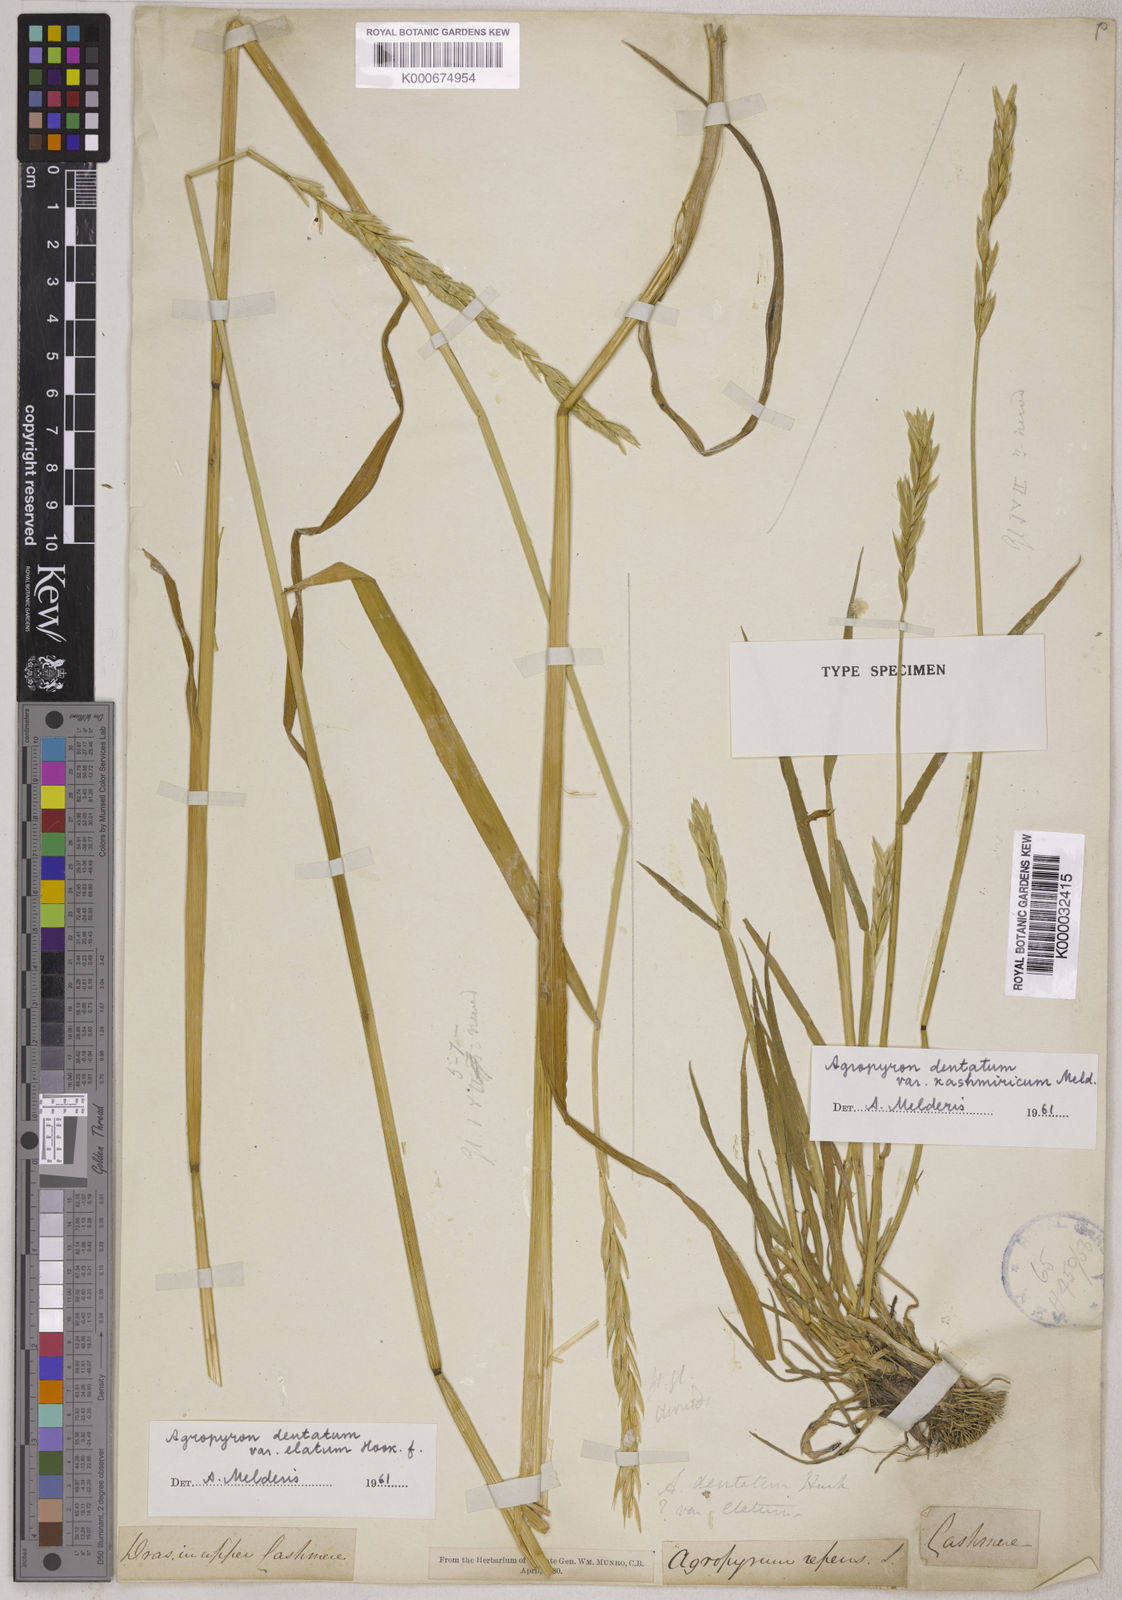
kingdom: Plantae
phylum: Tracheophyta
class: Liliopsida
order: Poales
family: Poaceae
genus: Elymus
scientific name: Elymus
